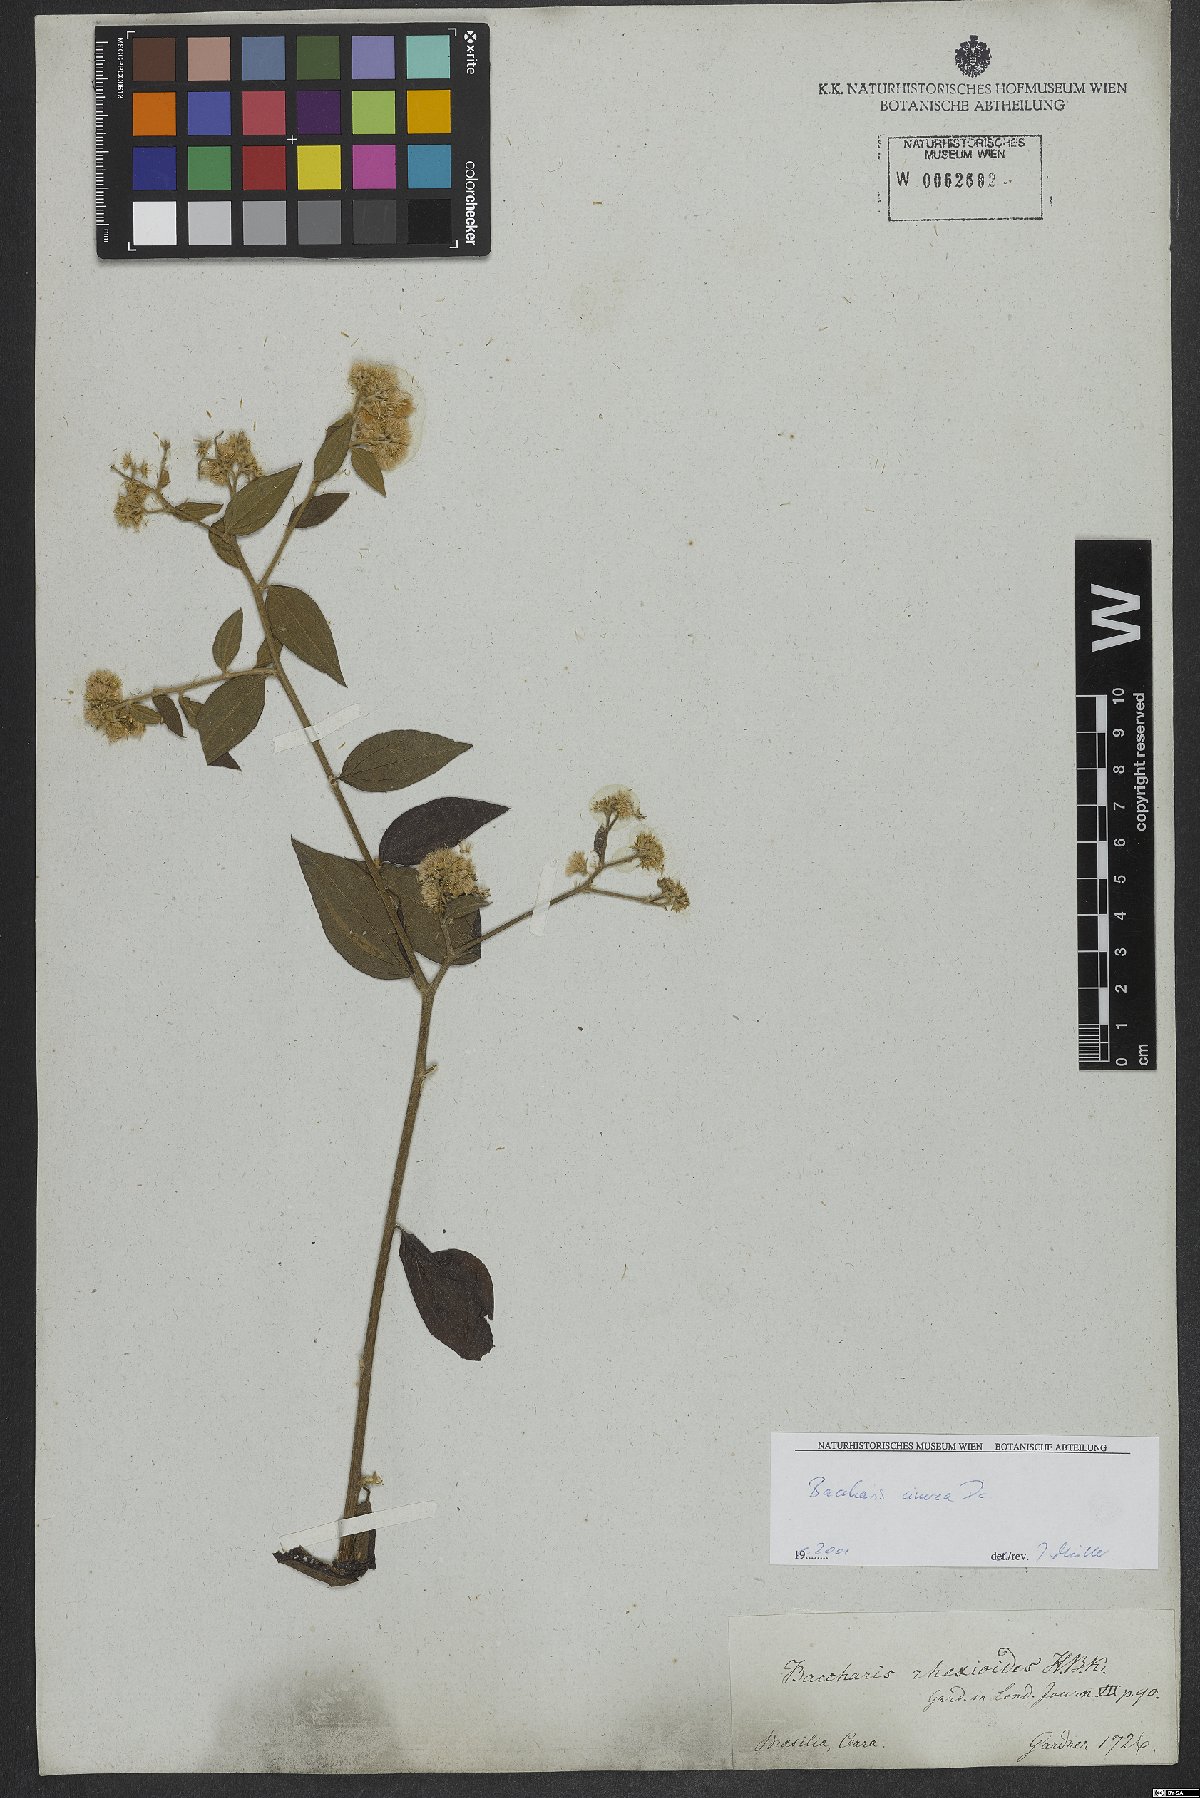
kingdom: Plantae
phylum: Tracheophyta
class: Magnoliopsida
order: Asterales
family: Asteraceae
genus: Baccharis
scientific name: Baccharis trinervis
